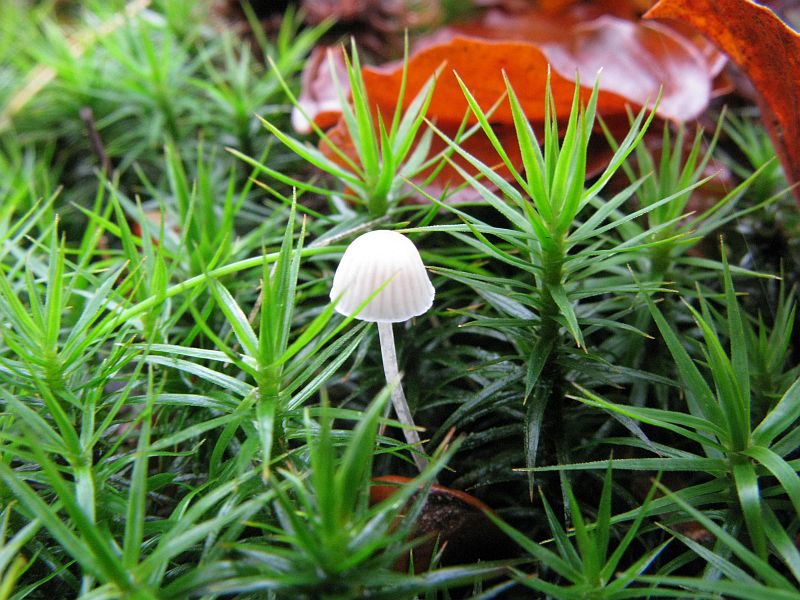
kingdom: Fungi
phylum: Basidiomycota
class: Agaricomycetes
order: Agaricales
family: Mycenaceae
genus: Mycena
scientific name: Mycena cinerella
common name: mel-huesvamp
